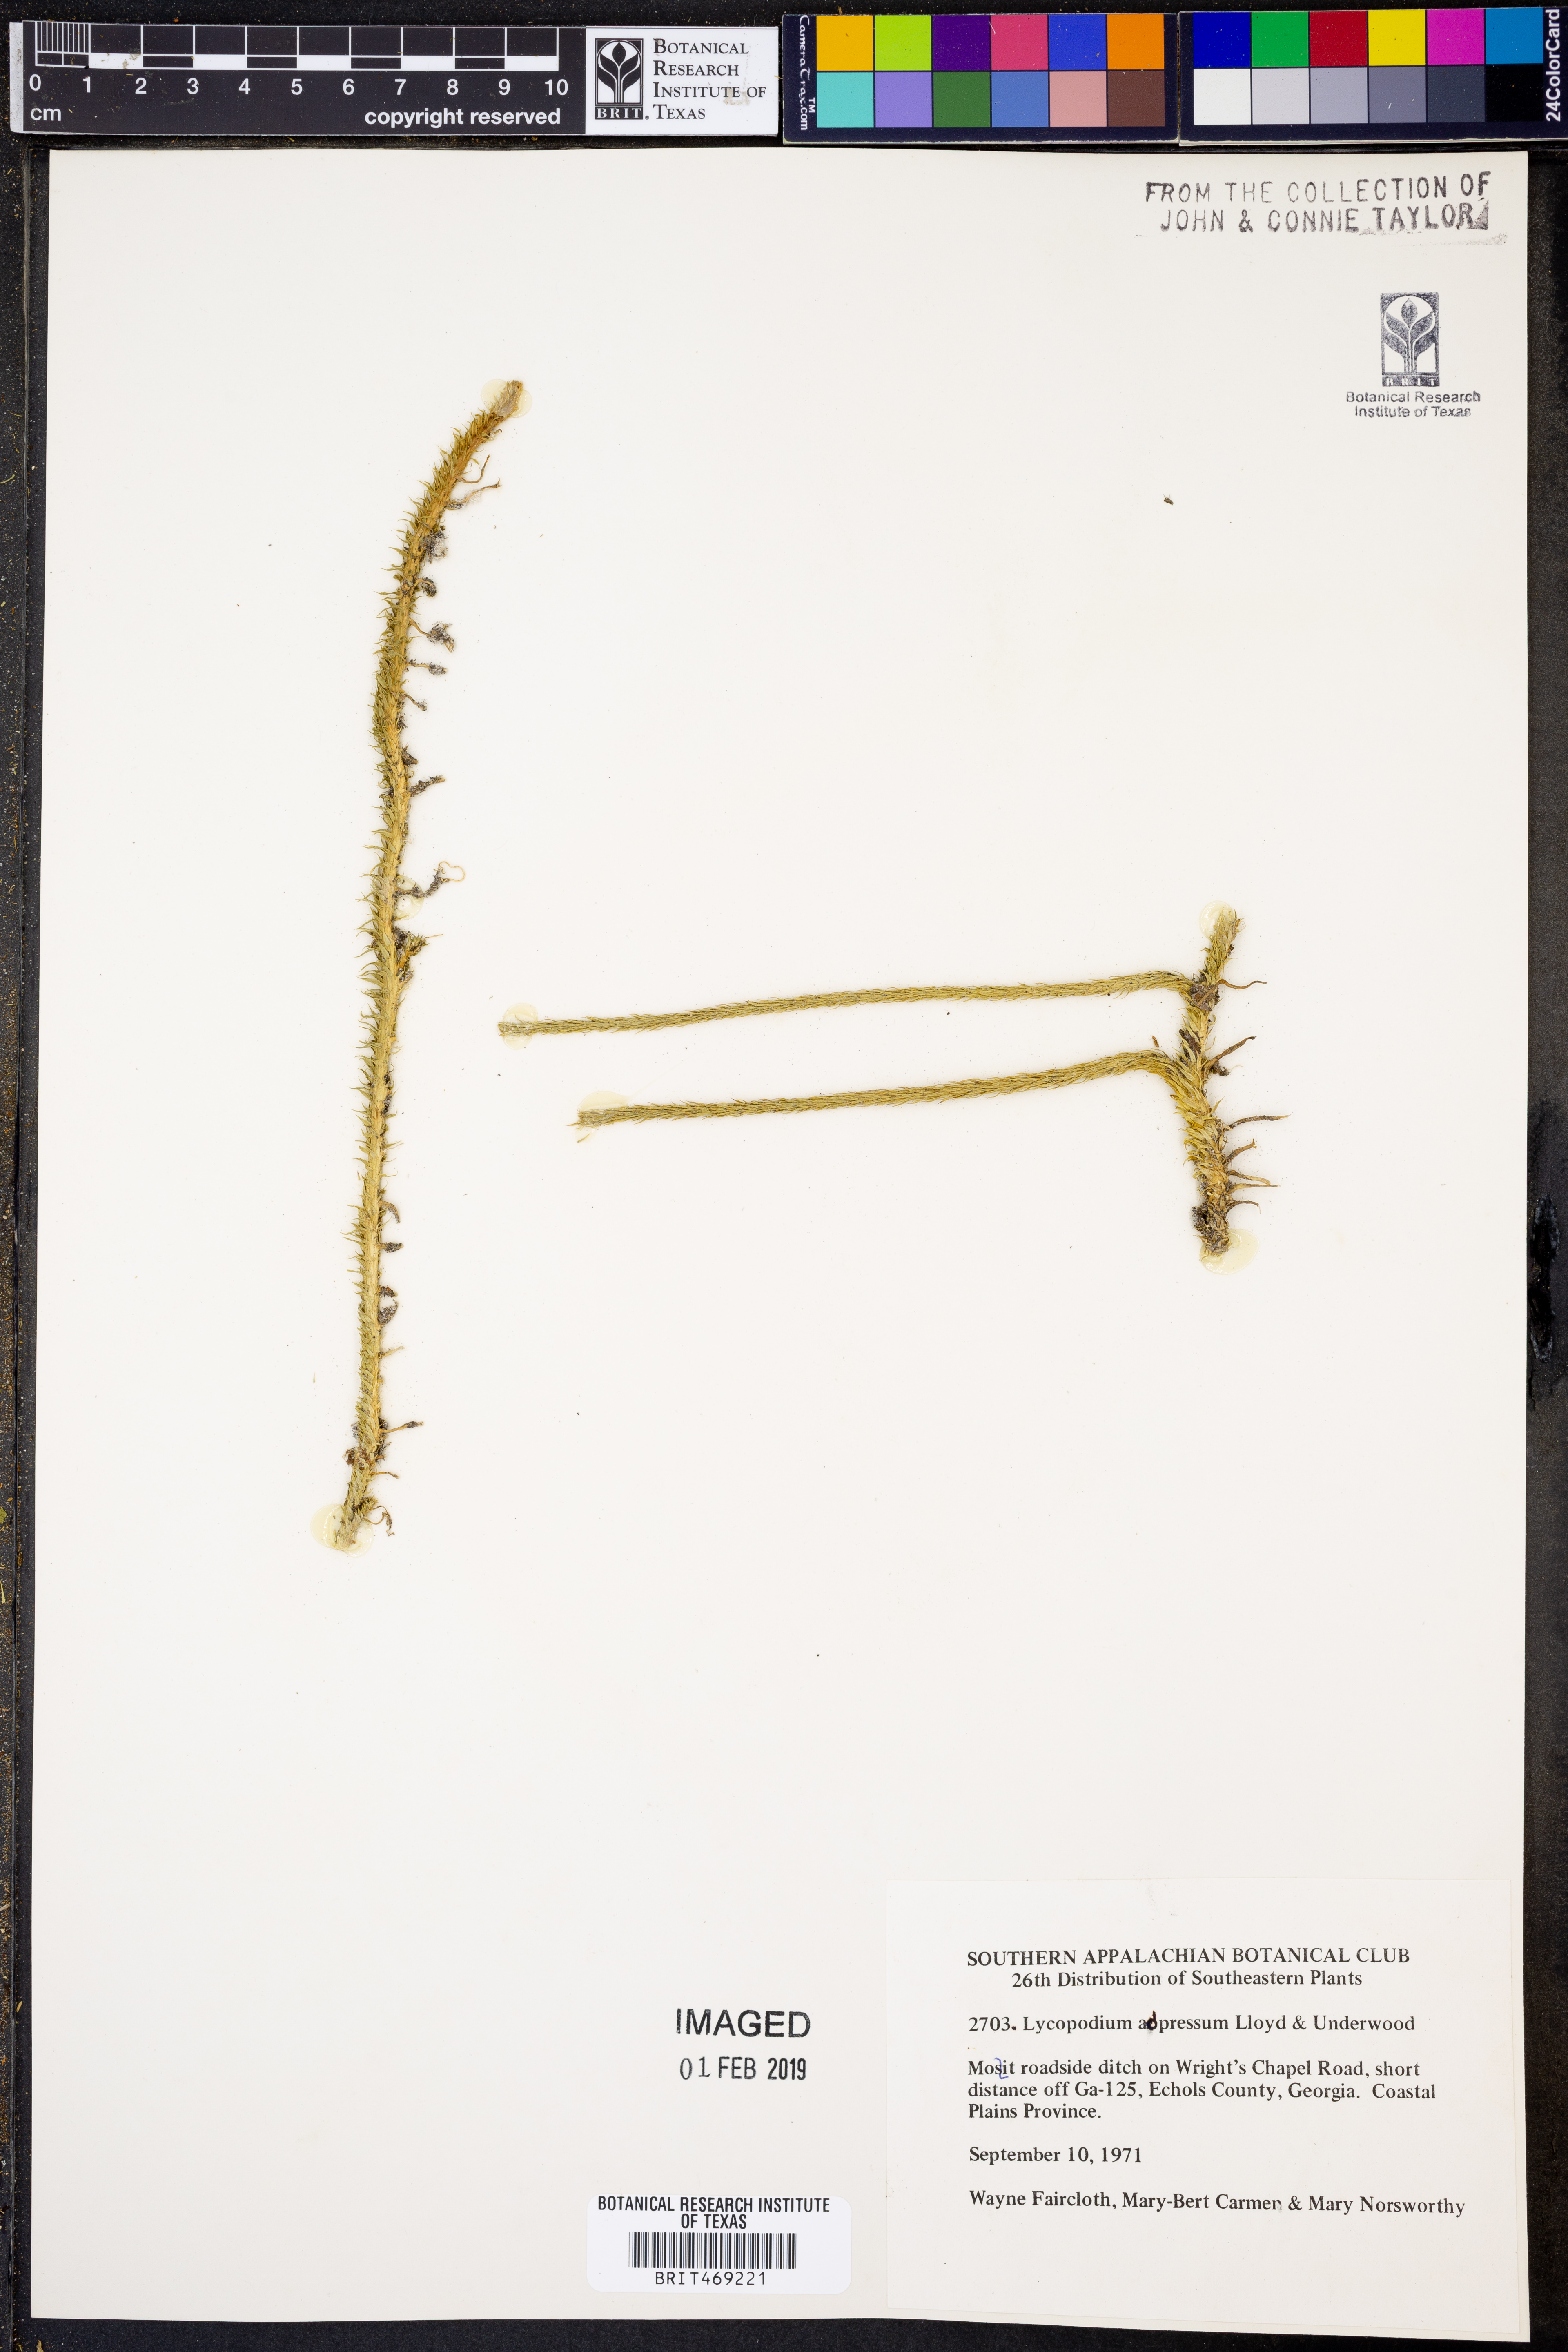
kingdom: Plantae
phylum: Tracheophyta
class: Lycopodiopsida
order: Lycopodiales
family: Lycopodiaceae
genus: Lycopodiella
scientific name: Lycopodiella appressa
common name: Appressed bog clubmoss
